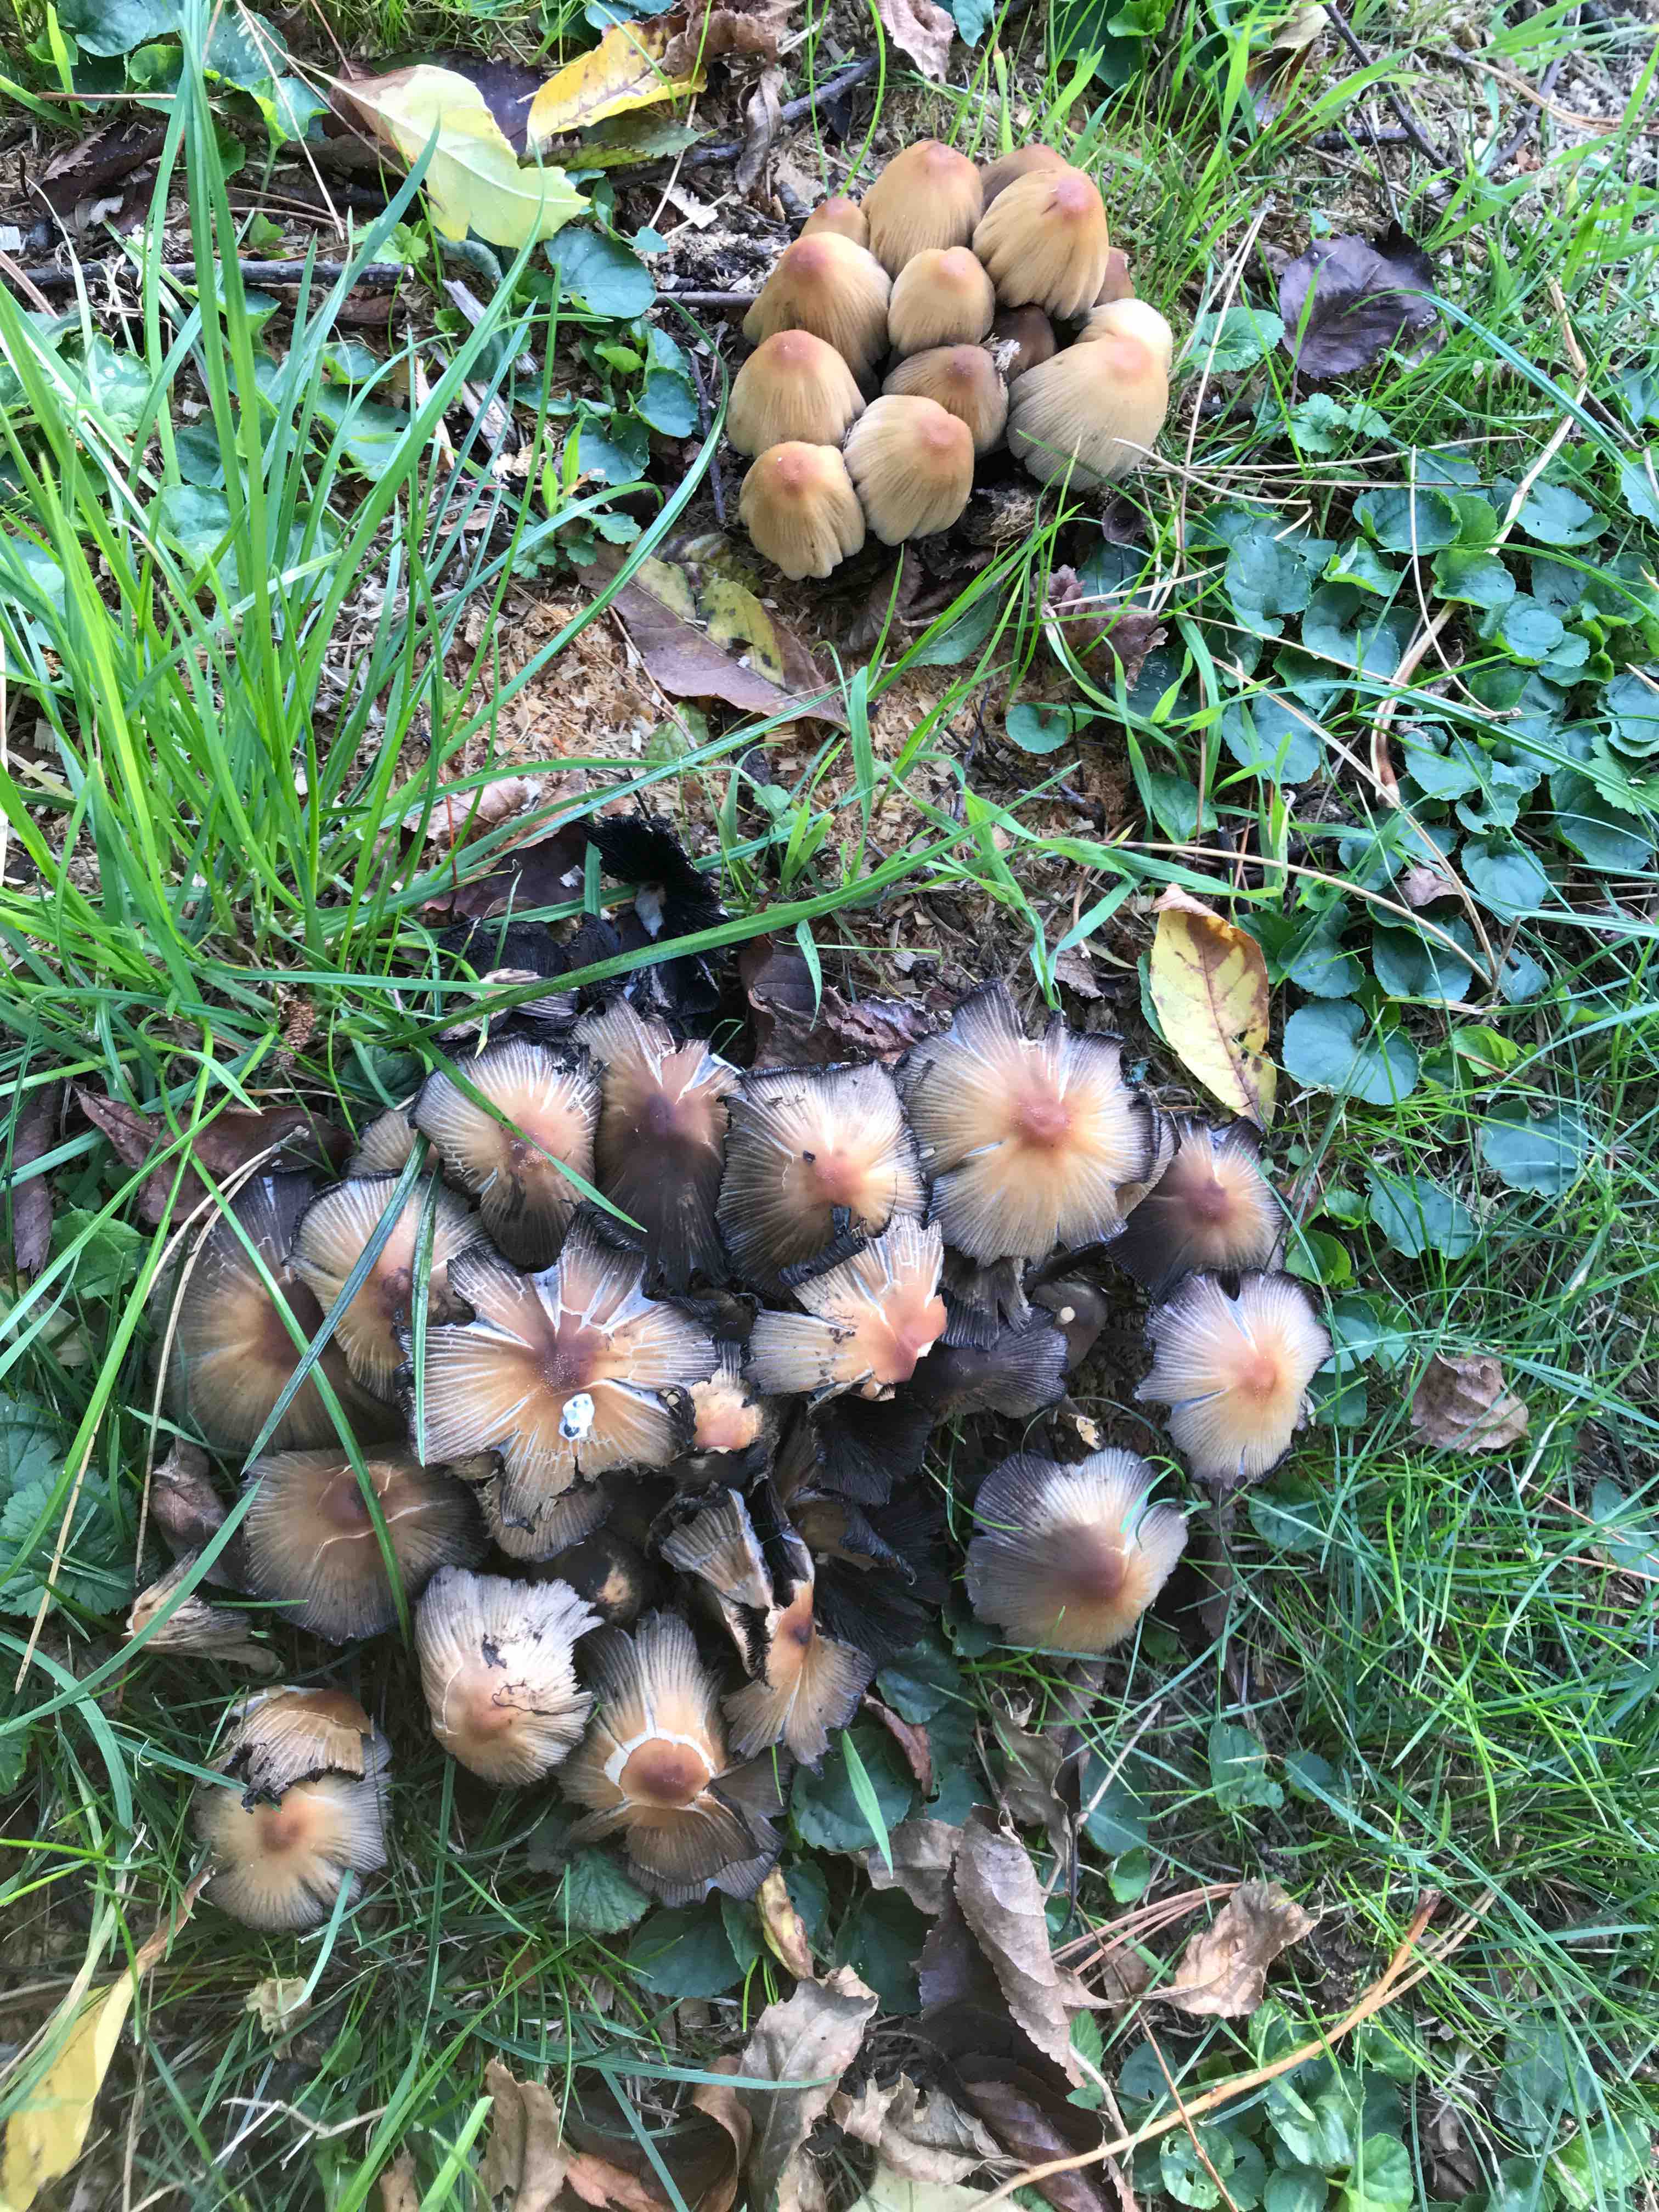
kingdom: Fungi
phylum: Basidiomycota
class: Agaricomycetes
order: Agaricales
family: Psathyrellaceae
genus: Coprinellus
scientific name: Coprinellus micaceus
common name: glimmer-blækhat
